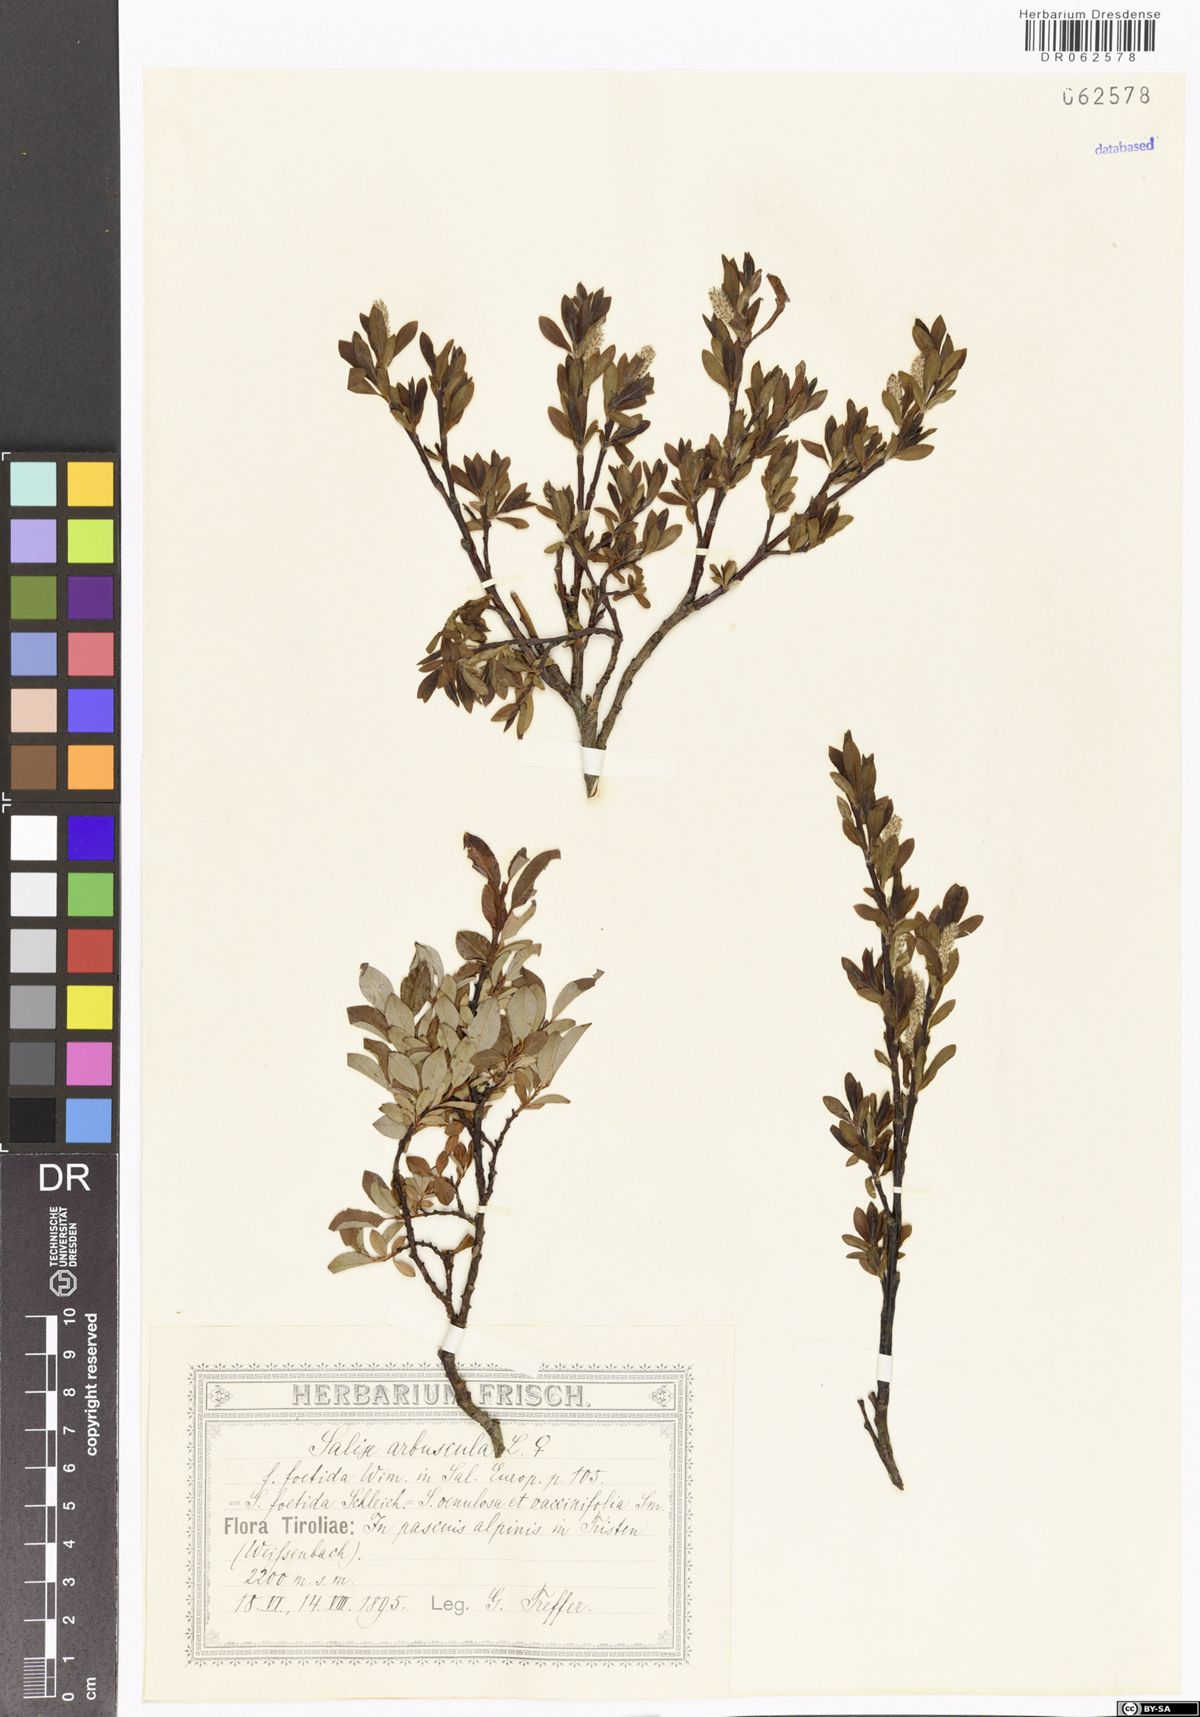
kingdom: Plantae
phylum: Tracheophyta
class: Magnoliopsida
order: Malpighiales
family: Salicaceae
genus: Salix
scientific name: Salix arbuscula
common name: Mountain willow
